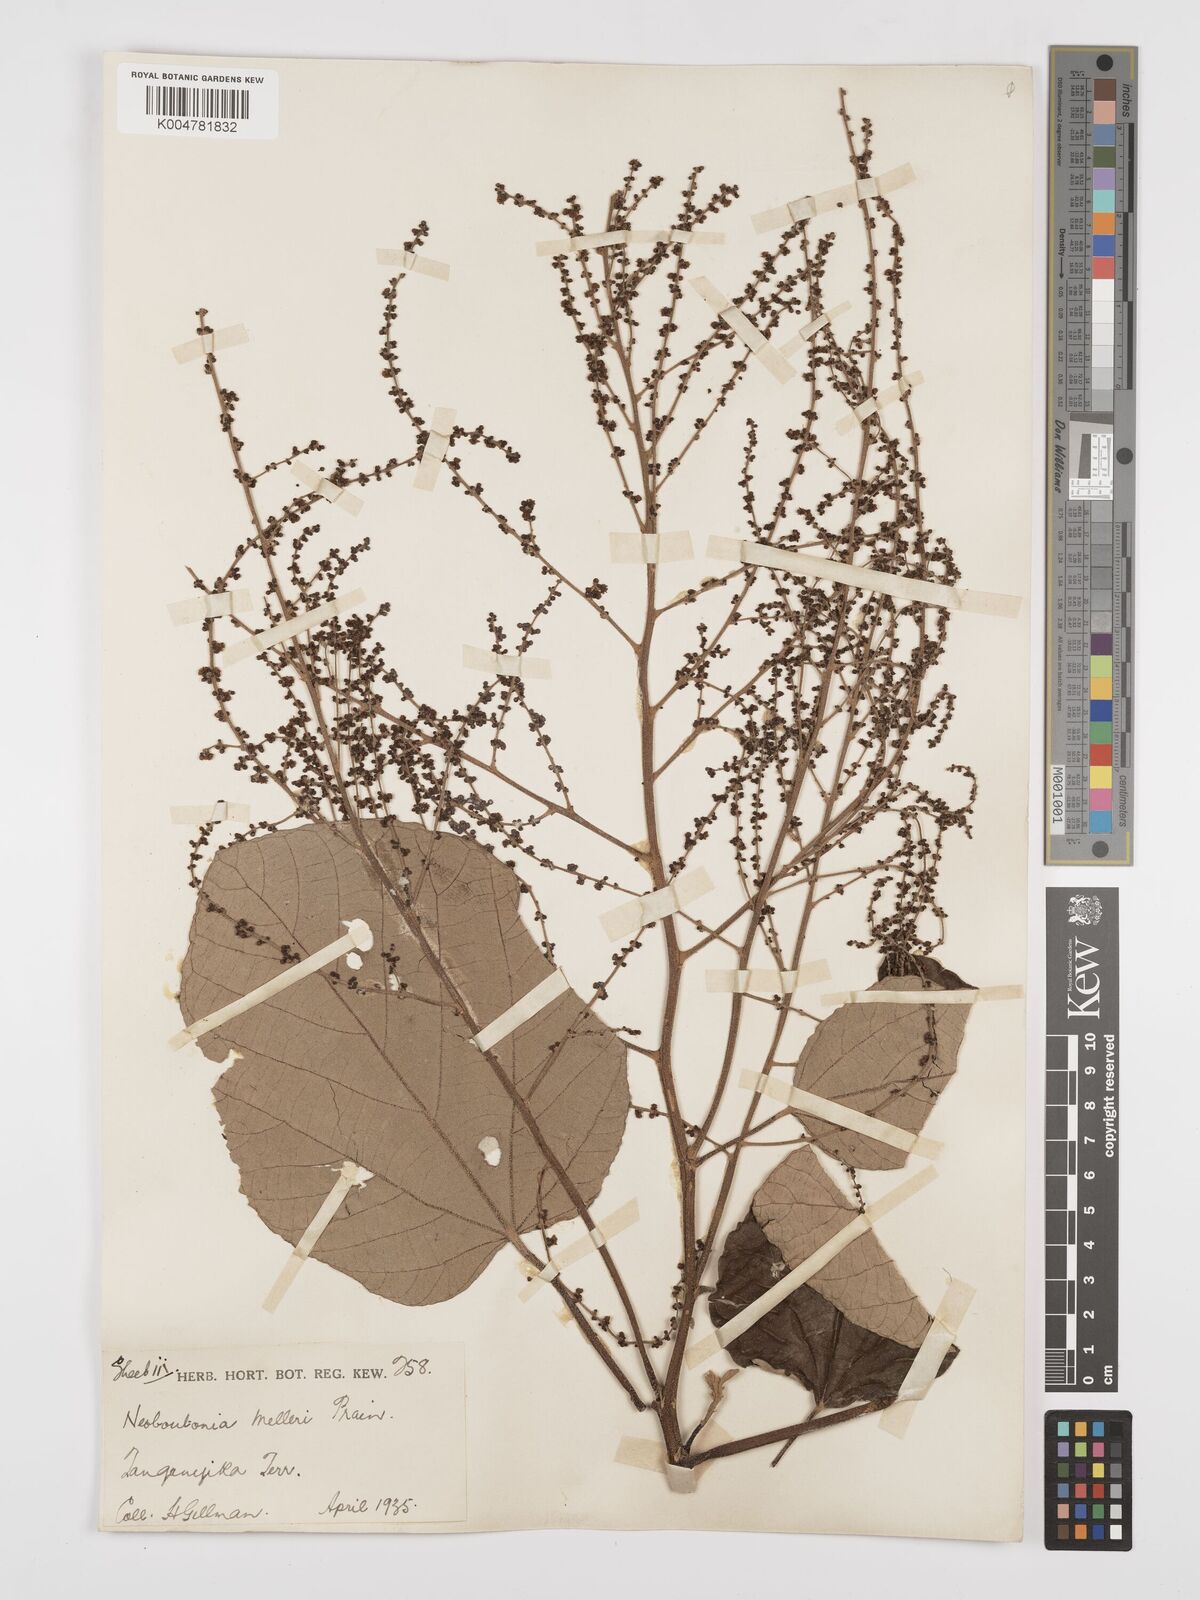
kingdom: Plantae
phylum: Tracheophyta
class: Magnoliopsida
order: Malpighiales
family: Euphorbiaceae
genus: Neoboutonia
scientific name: Neoboutonia melleri
